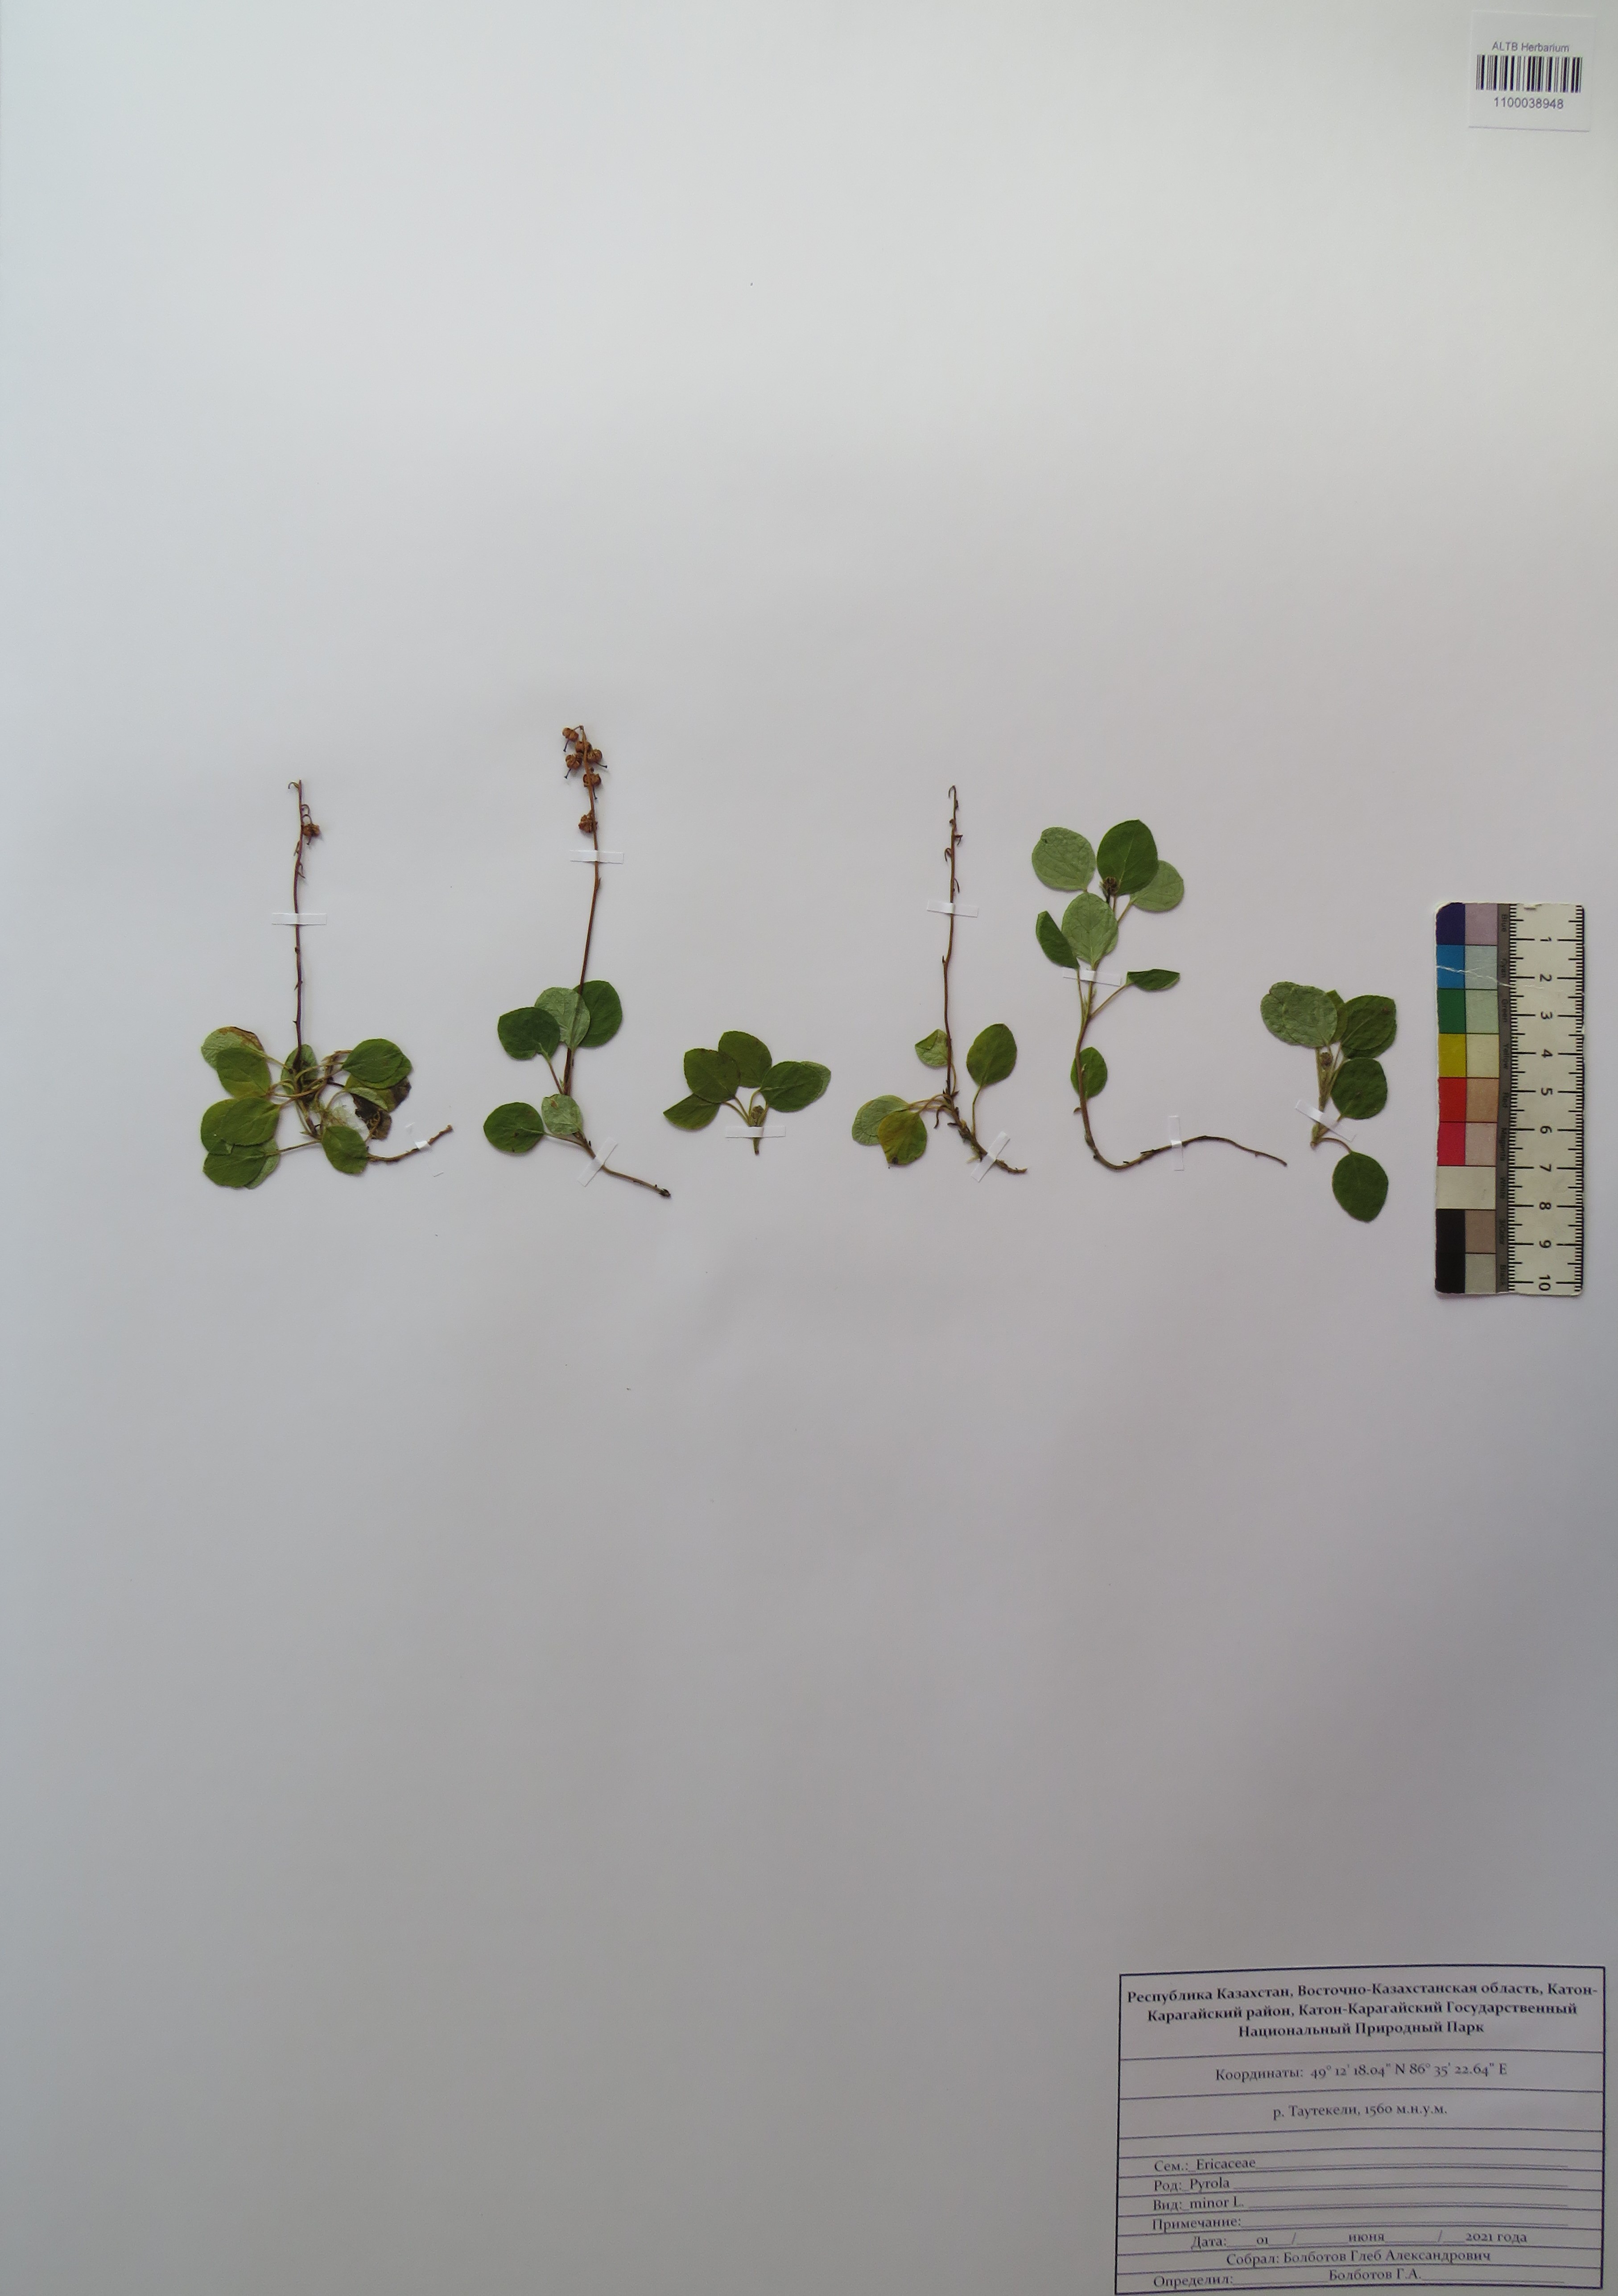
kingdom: Plantae
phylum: Tracheophyta
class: Magnoliopsida
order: Ericales
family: Ericaceae
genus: Pyrola
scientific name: Pyrola minor
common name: Common wintergreen
